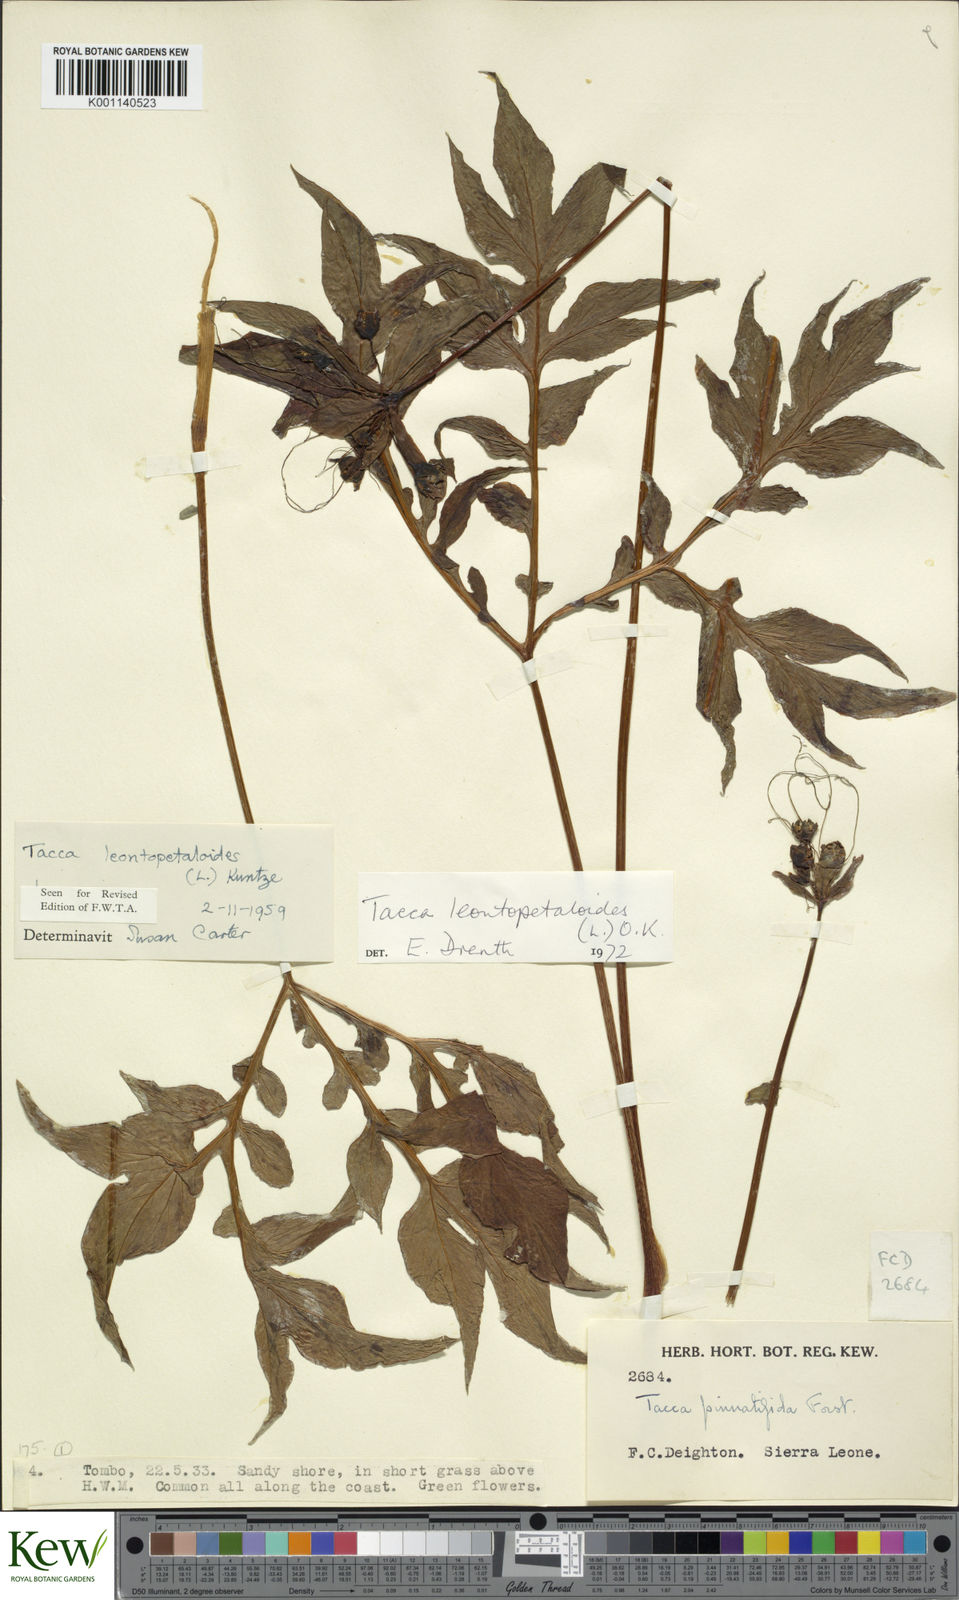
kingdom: Plantae
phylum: Tracheophyta
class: Liliopsida
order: Dioscoreales
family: Dioscoreaceae
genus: Tacca
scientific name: Tacca leontopetaloides
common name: Arrowroot
